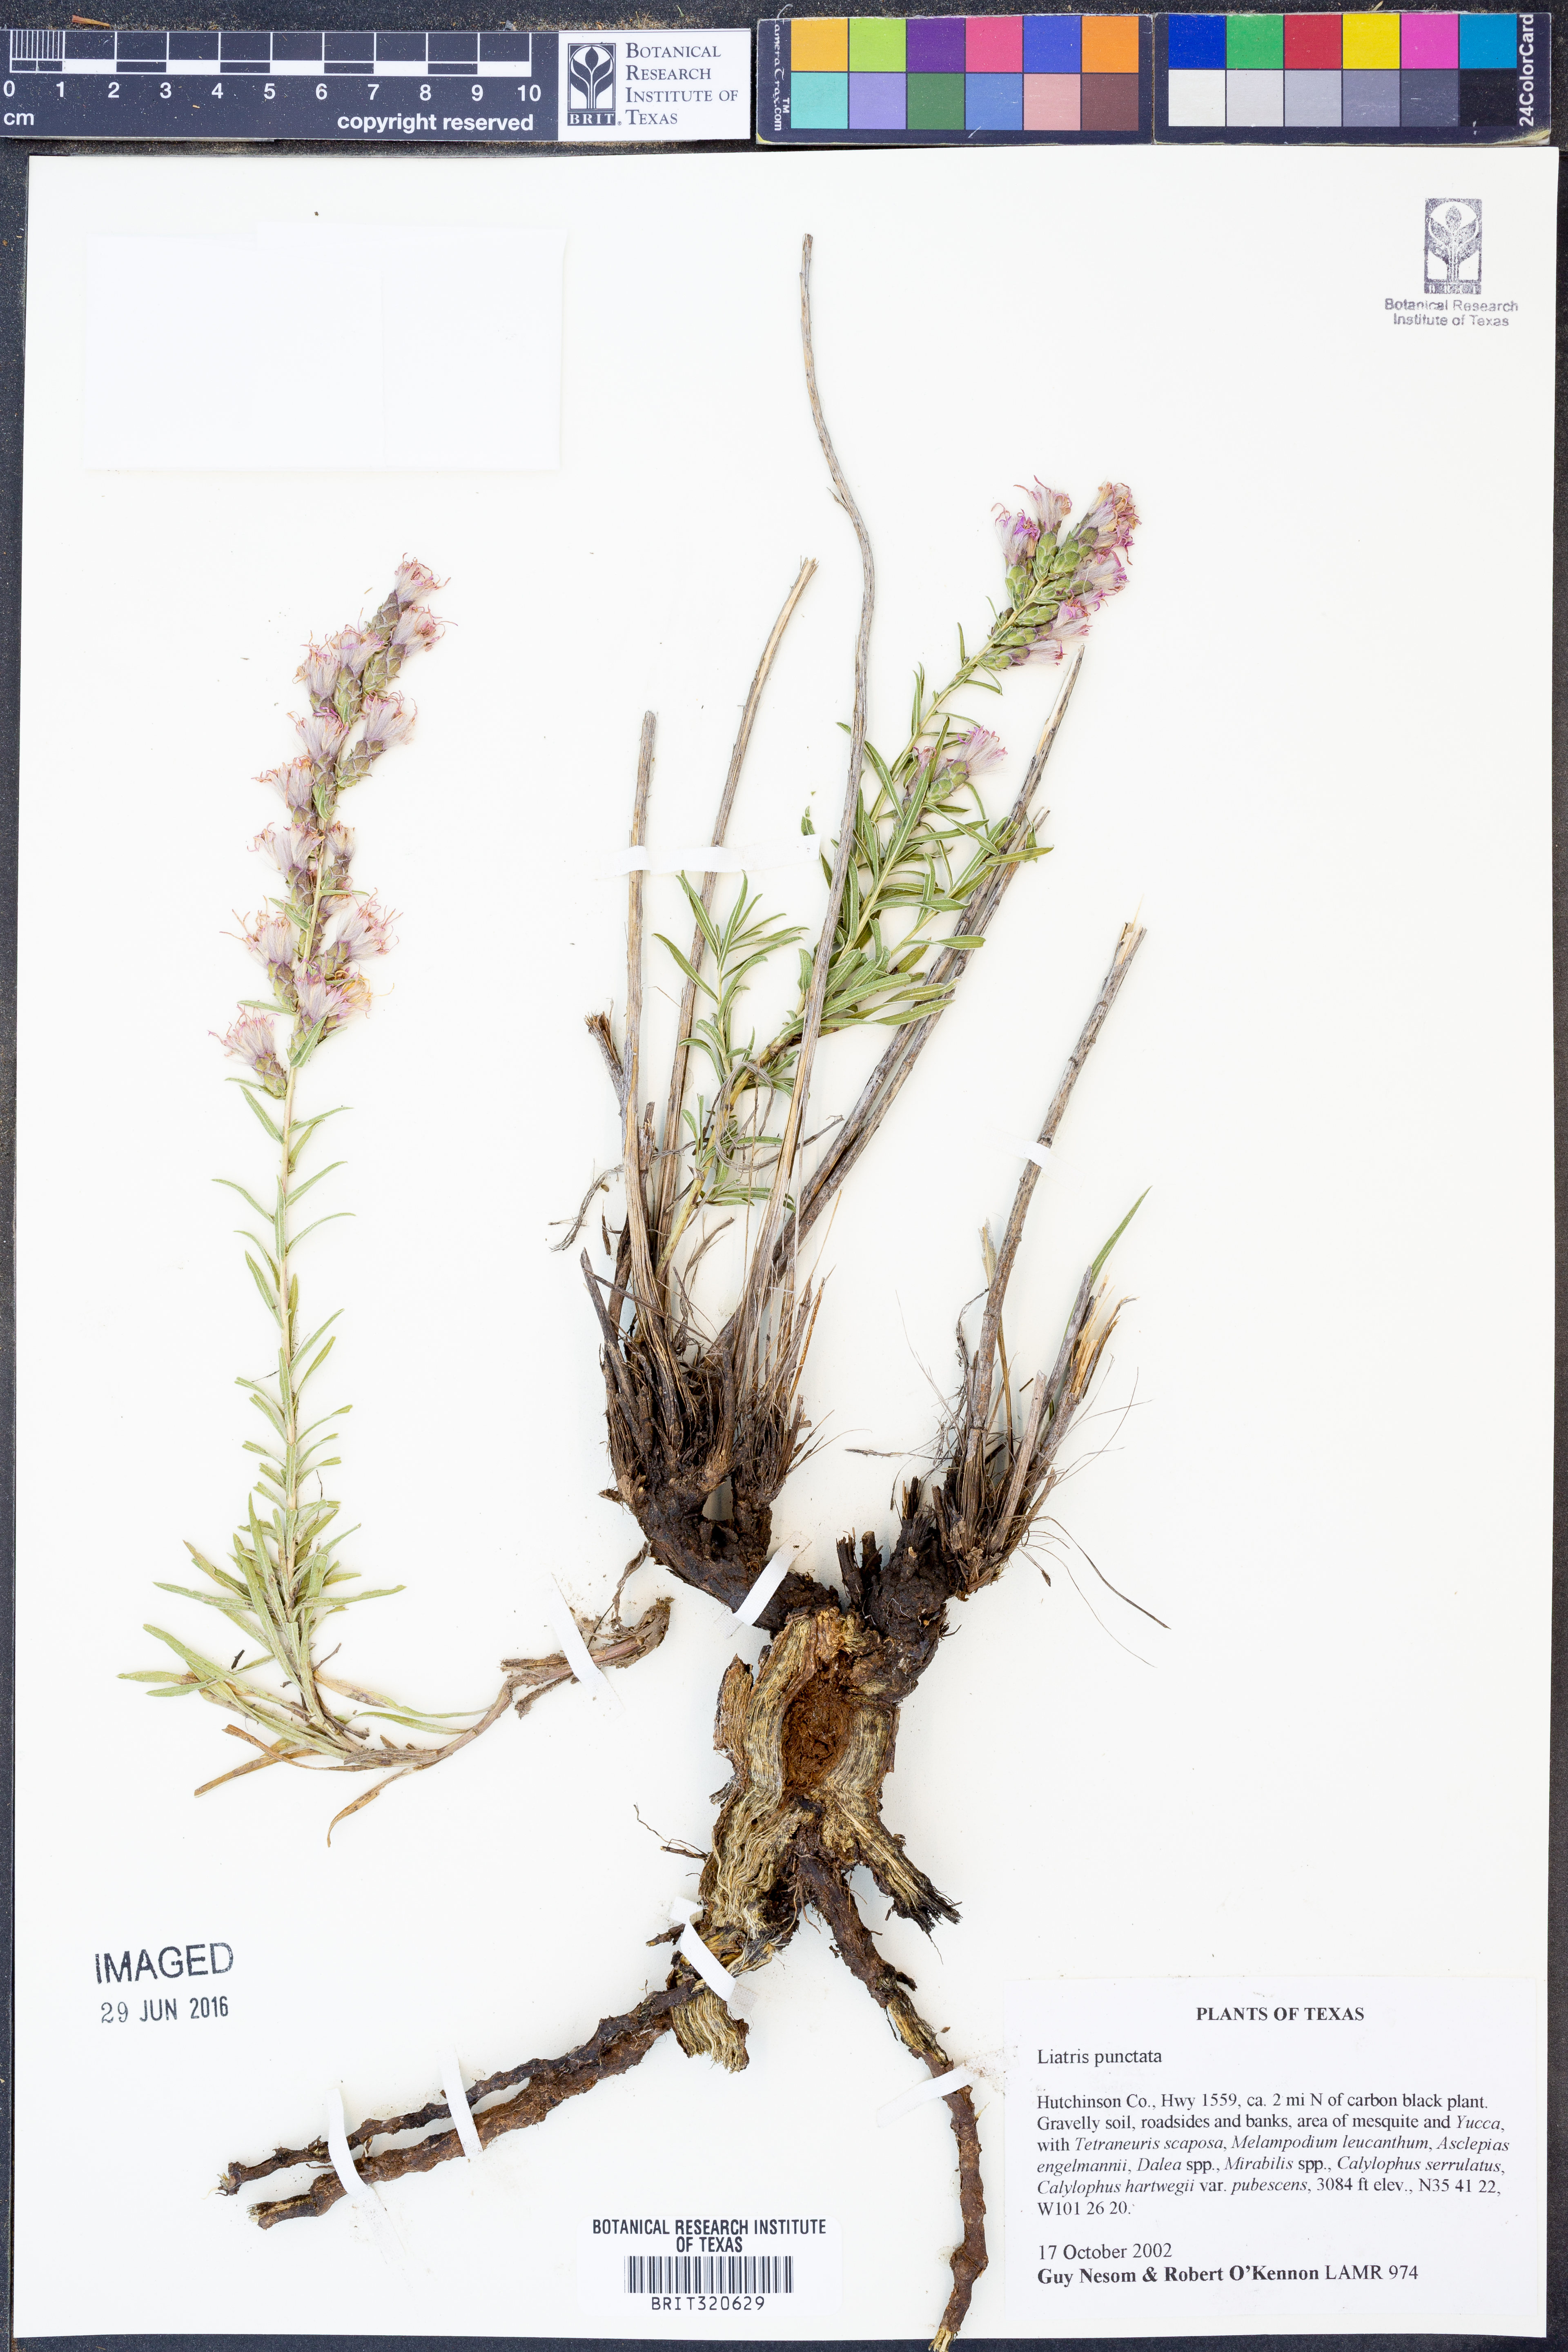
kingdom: Plantae
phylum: Tracheophyta
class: Magnoliopsida
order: Asterales
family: Asteraceae
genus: Liatris
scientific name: Liatris punctata
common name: Dotted gayfeather
